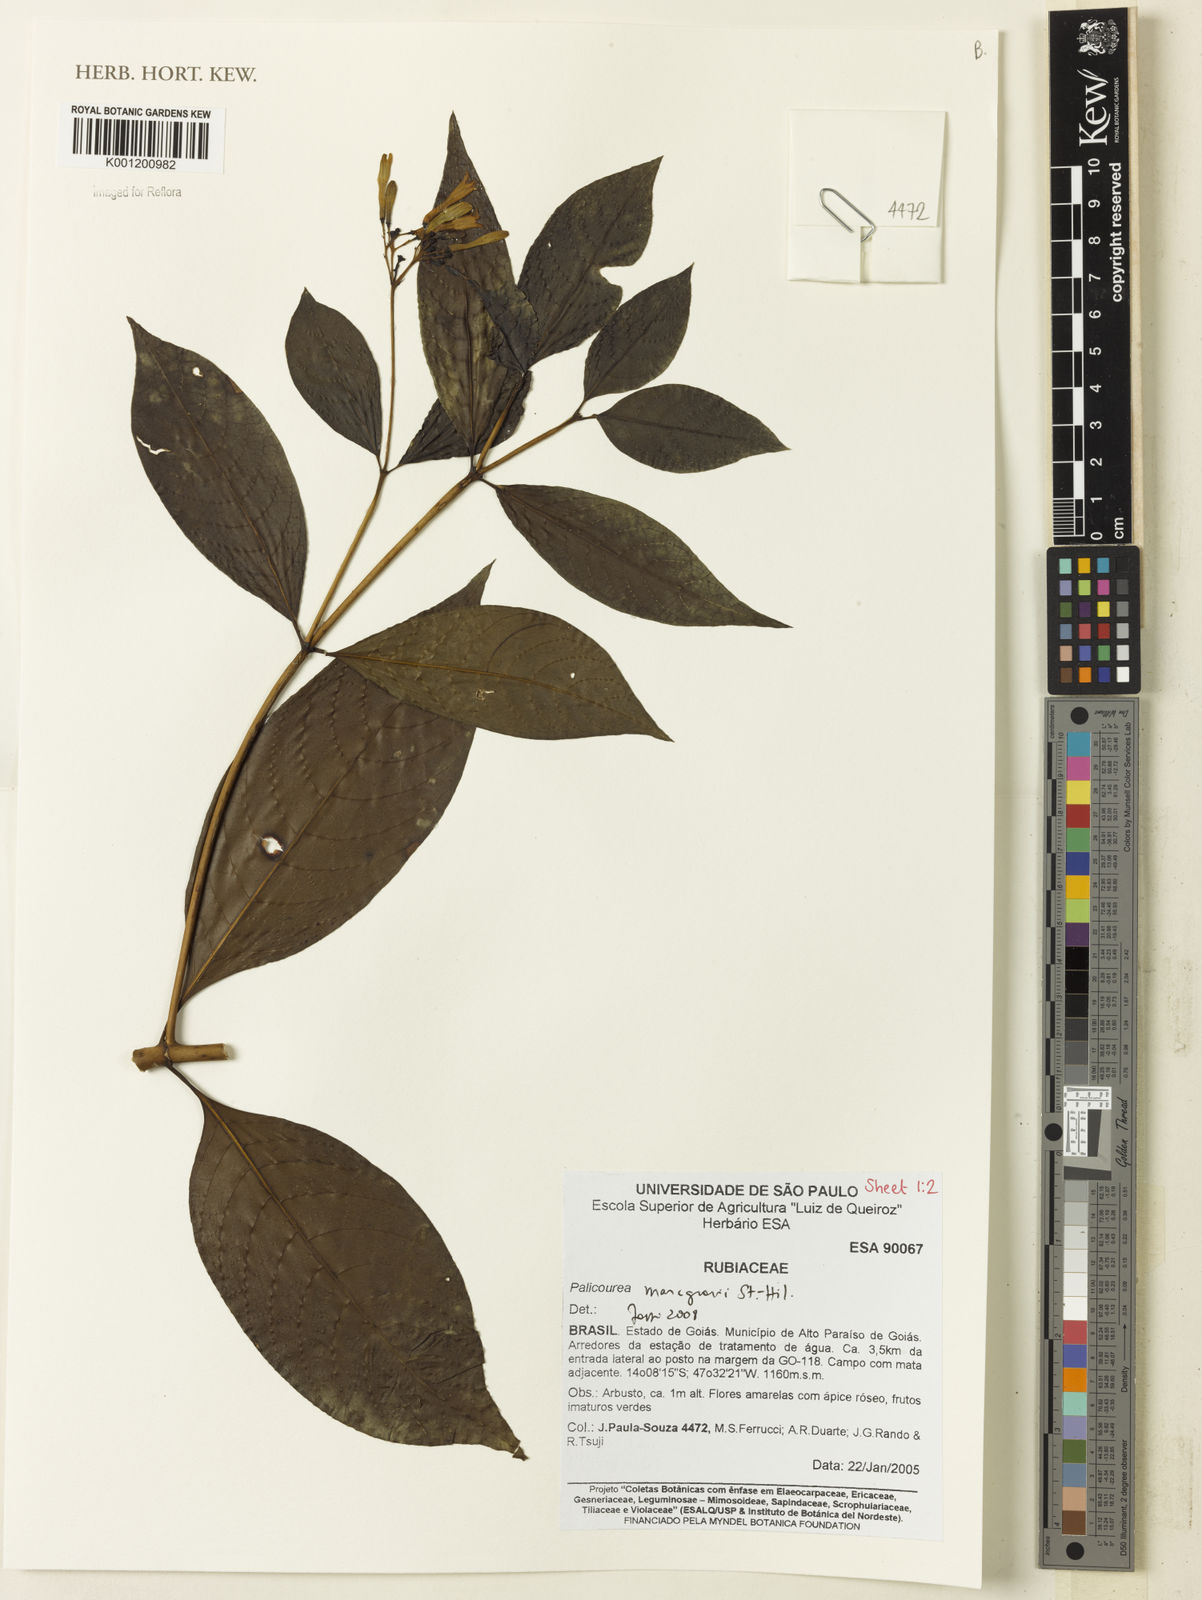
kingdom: Plantae
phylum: Tracheophyta
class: Magnoliopsida
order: Gentianales
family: Rubiaceae
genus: Palicourea
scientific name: Palicourea marcgravii
